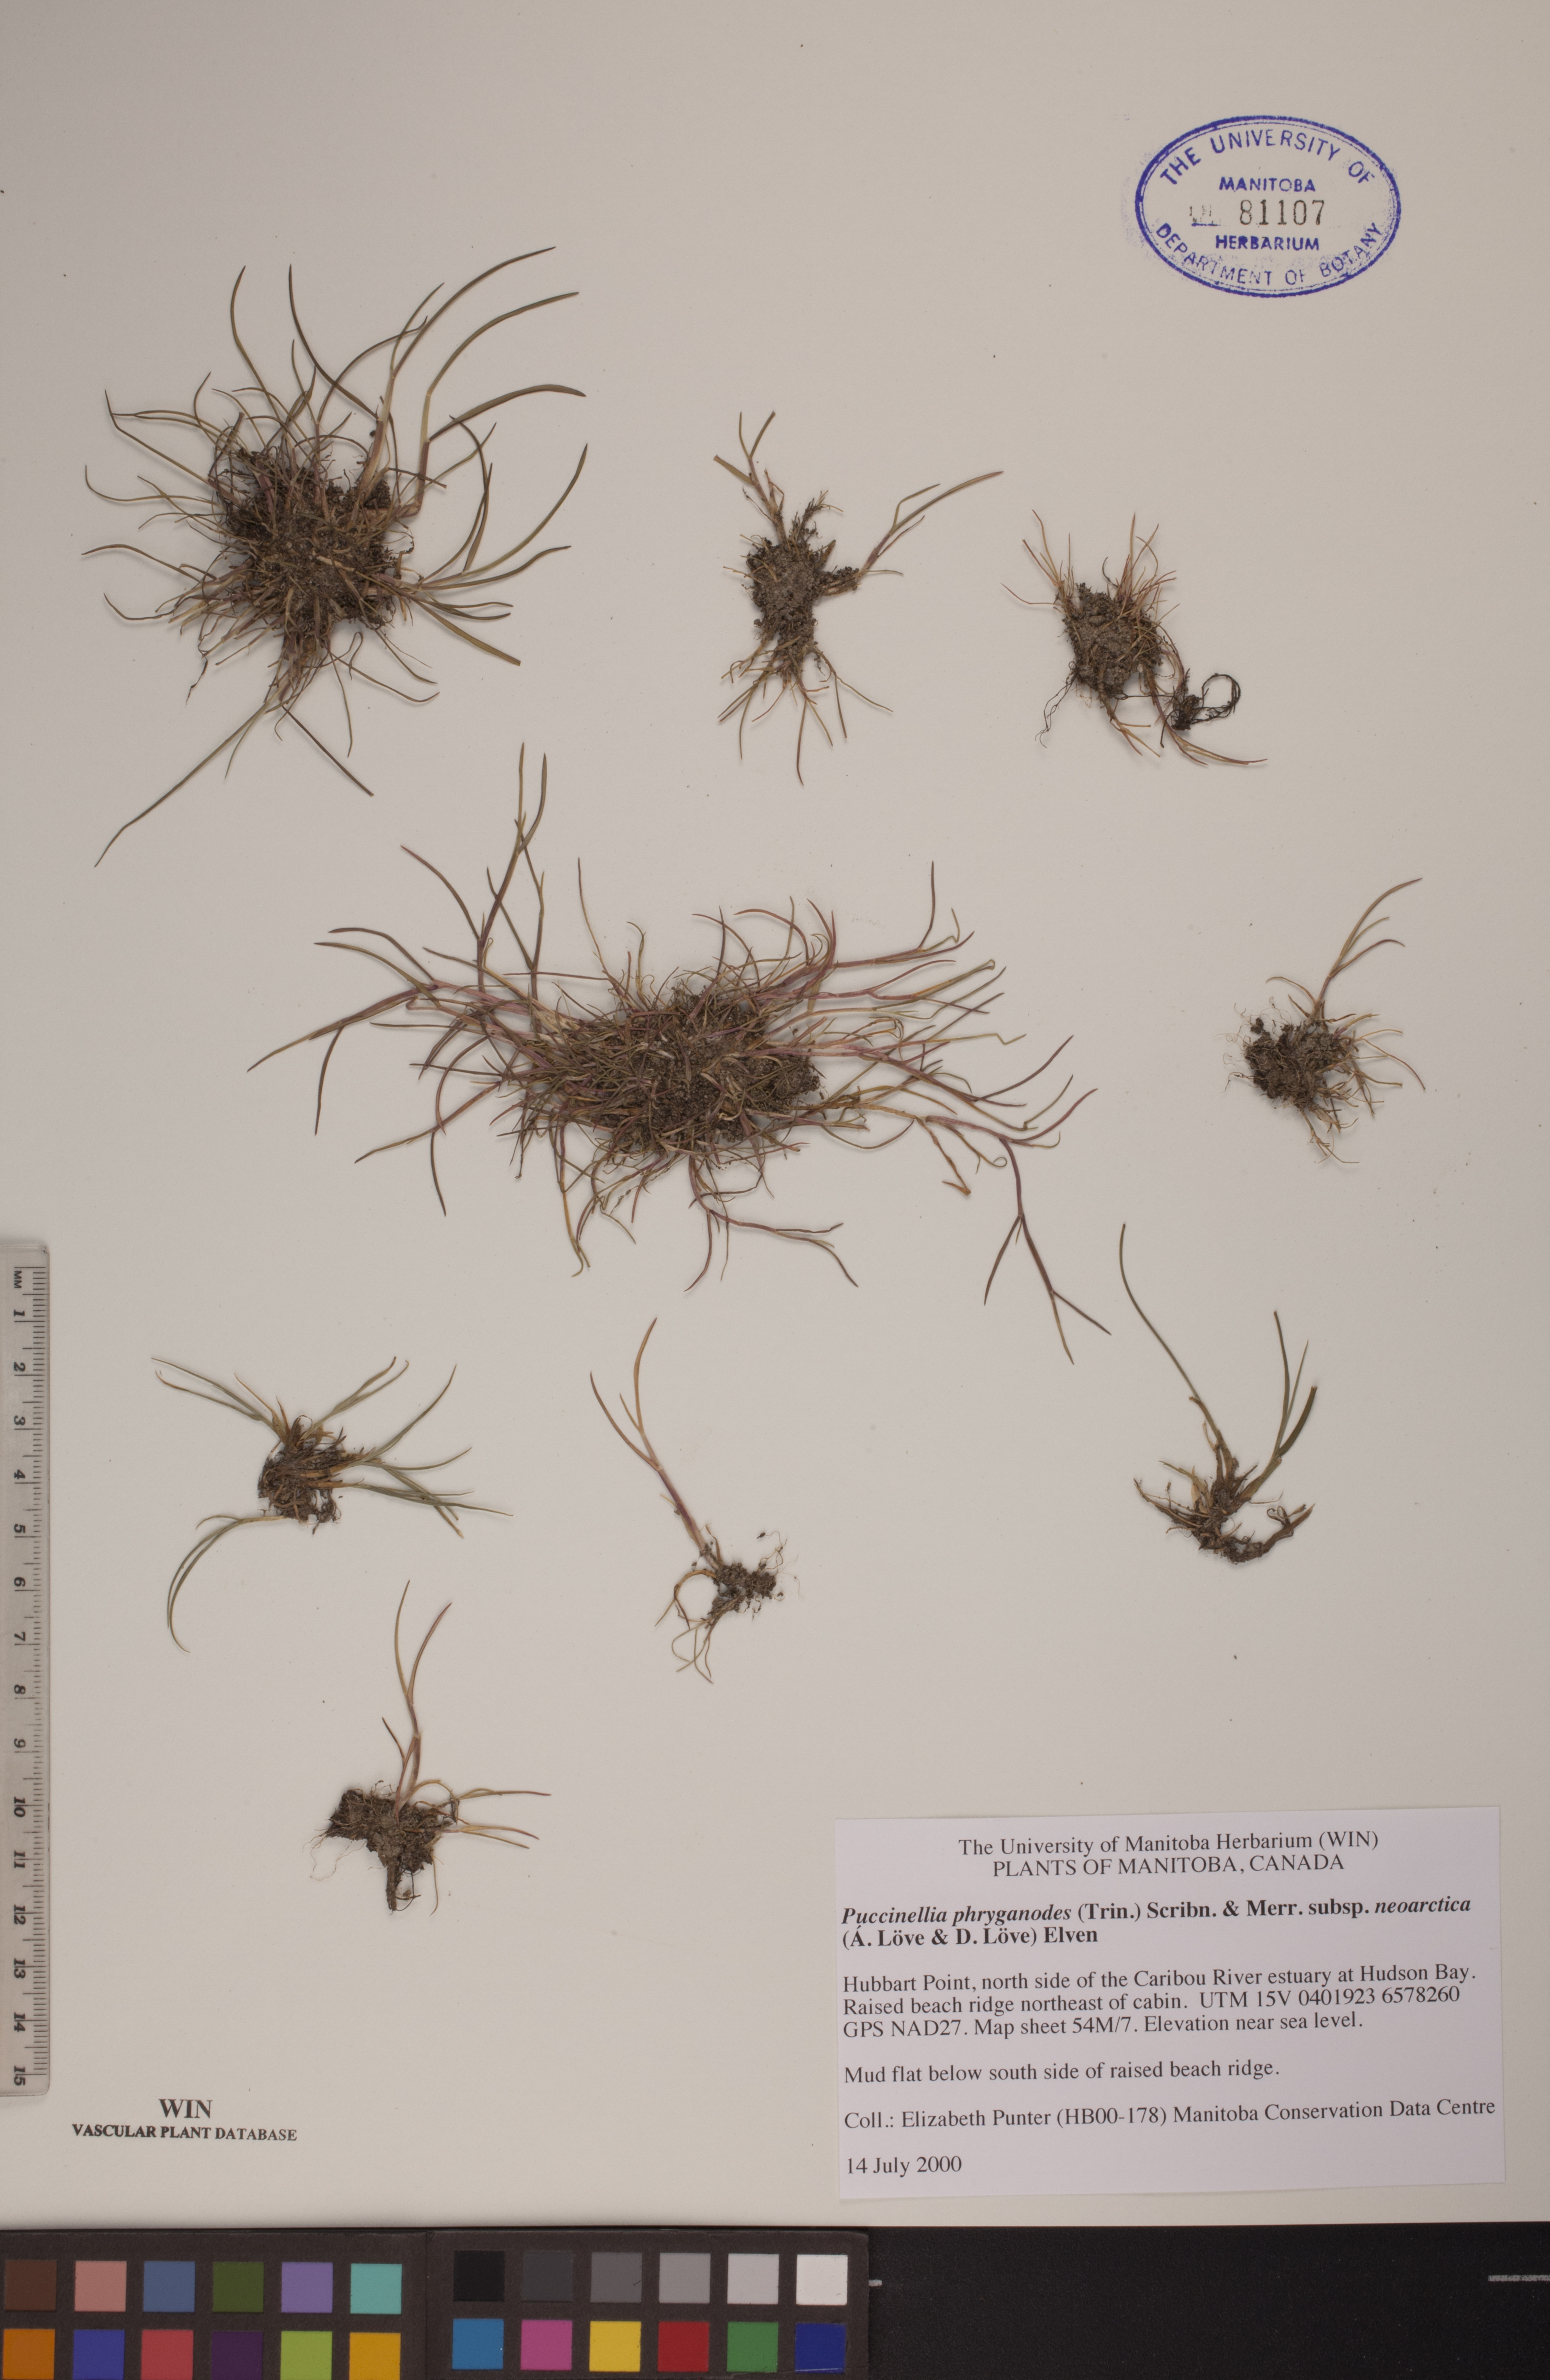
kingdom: Plantae
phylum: Tracheophyta
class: Liliopsida
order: Poales
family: Poaceae
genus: Puccinellia
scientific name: Puccinellia phryganodes
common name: Creeping alkaligrass
